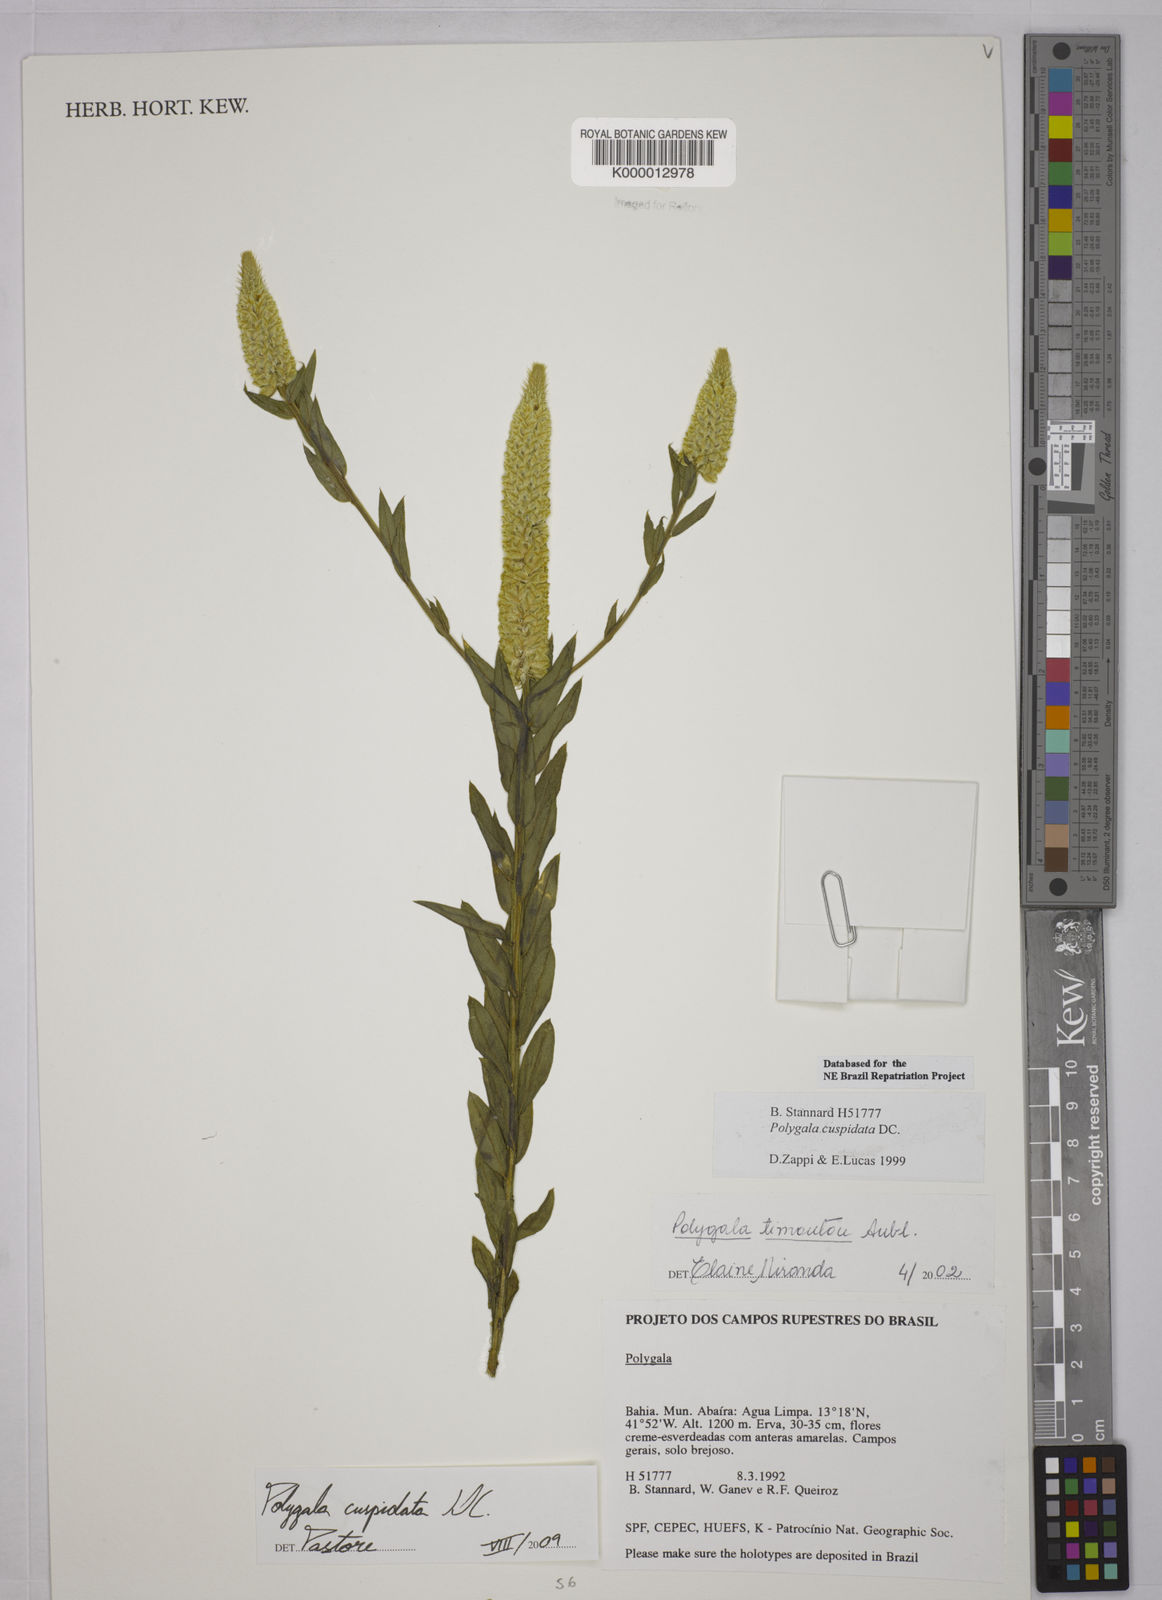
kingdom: Plantae
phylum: Tracheophyta
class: Magnoliopsida
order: Fabales
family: Polygalaceae
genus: Polygala
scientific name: Polygala timoutou
